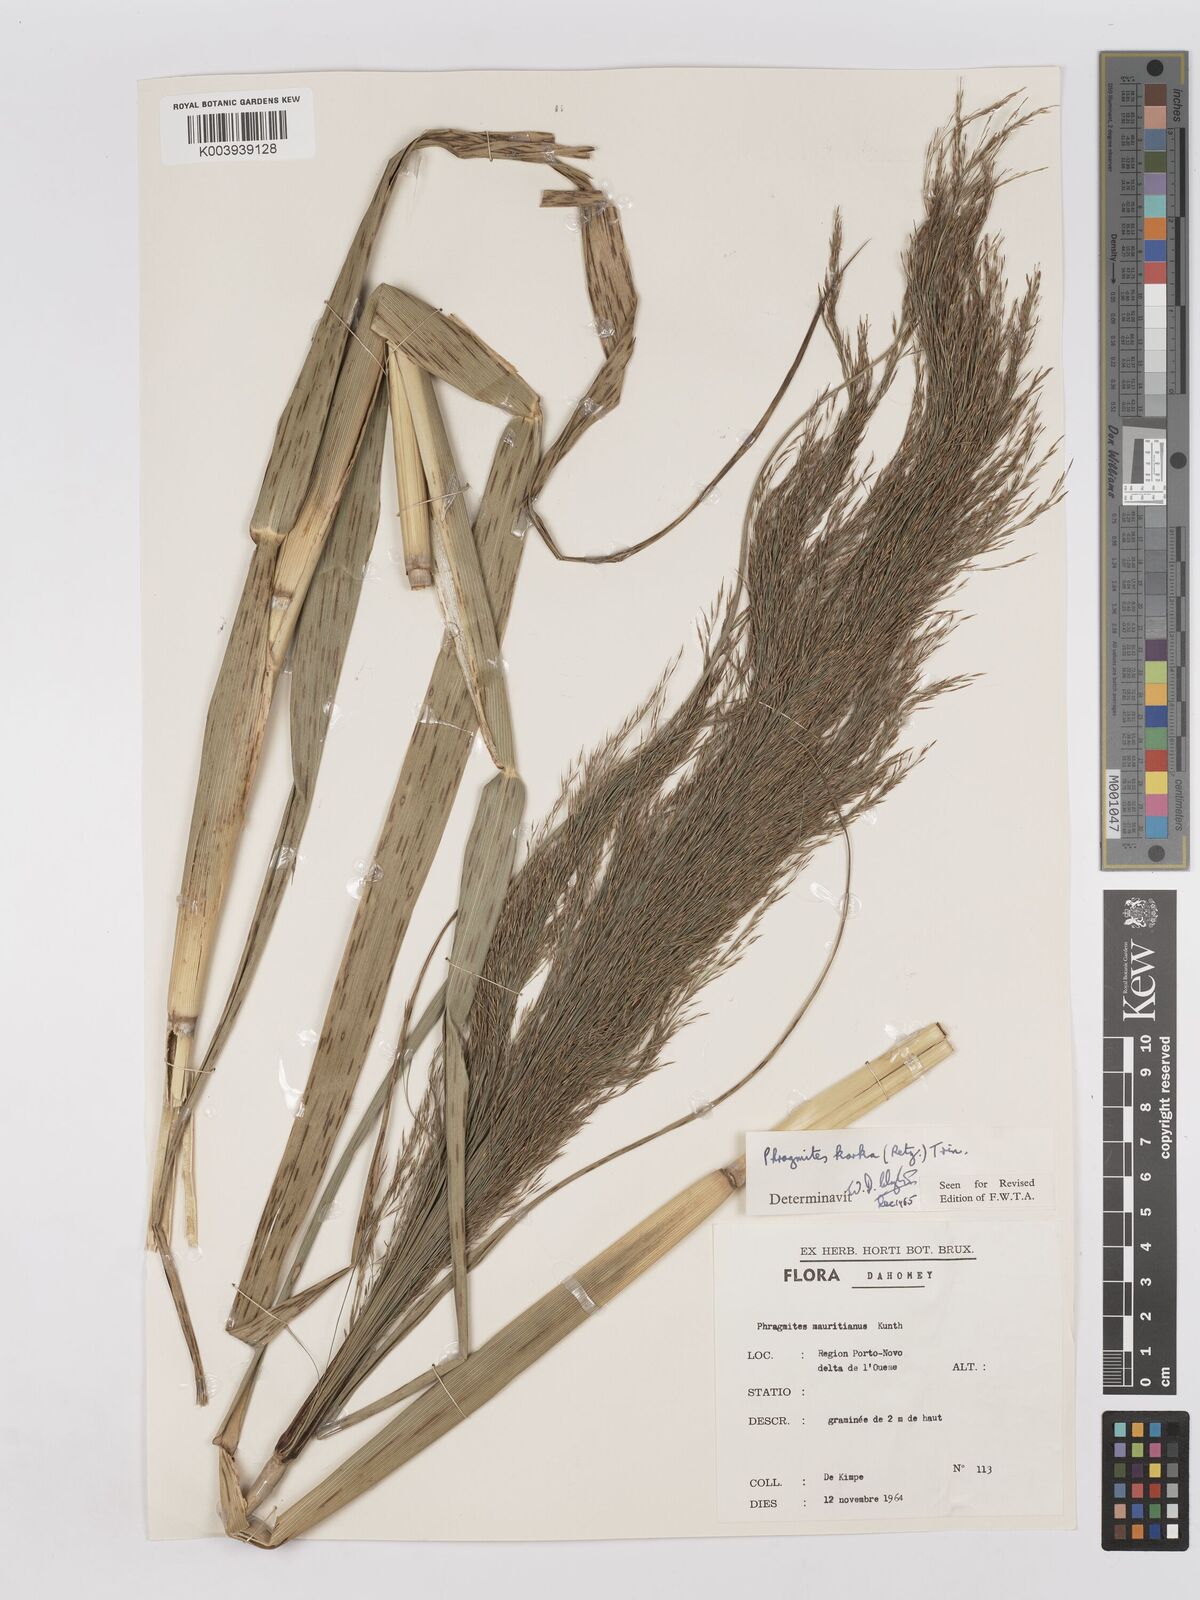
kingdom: Plantae
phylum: Tracheophyta
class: Liliopsida
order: Poales
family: Poaceae
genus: Phragmites
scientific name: Phragmites karka
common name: Tropical reed
